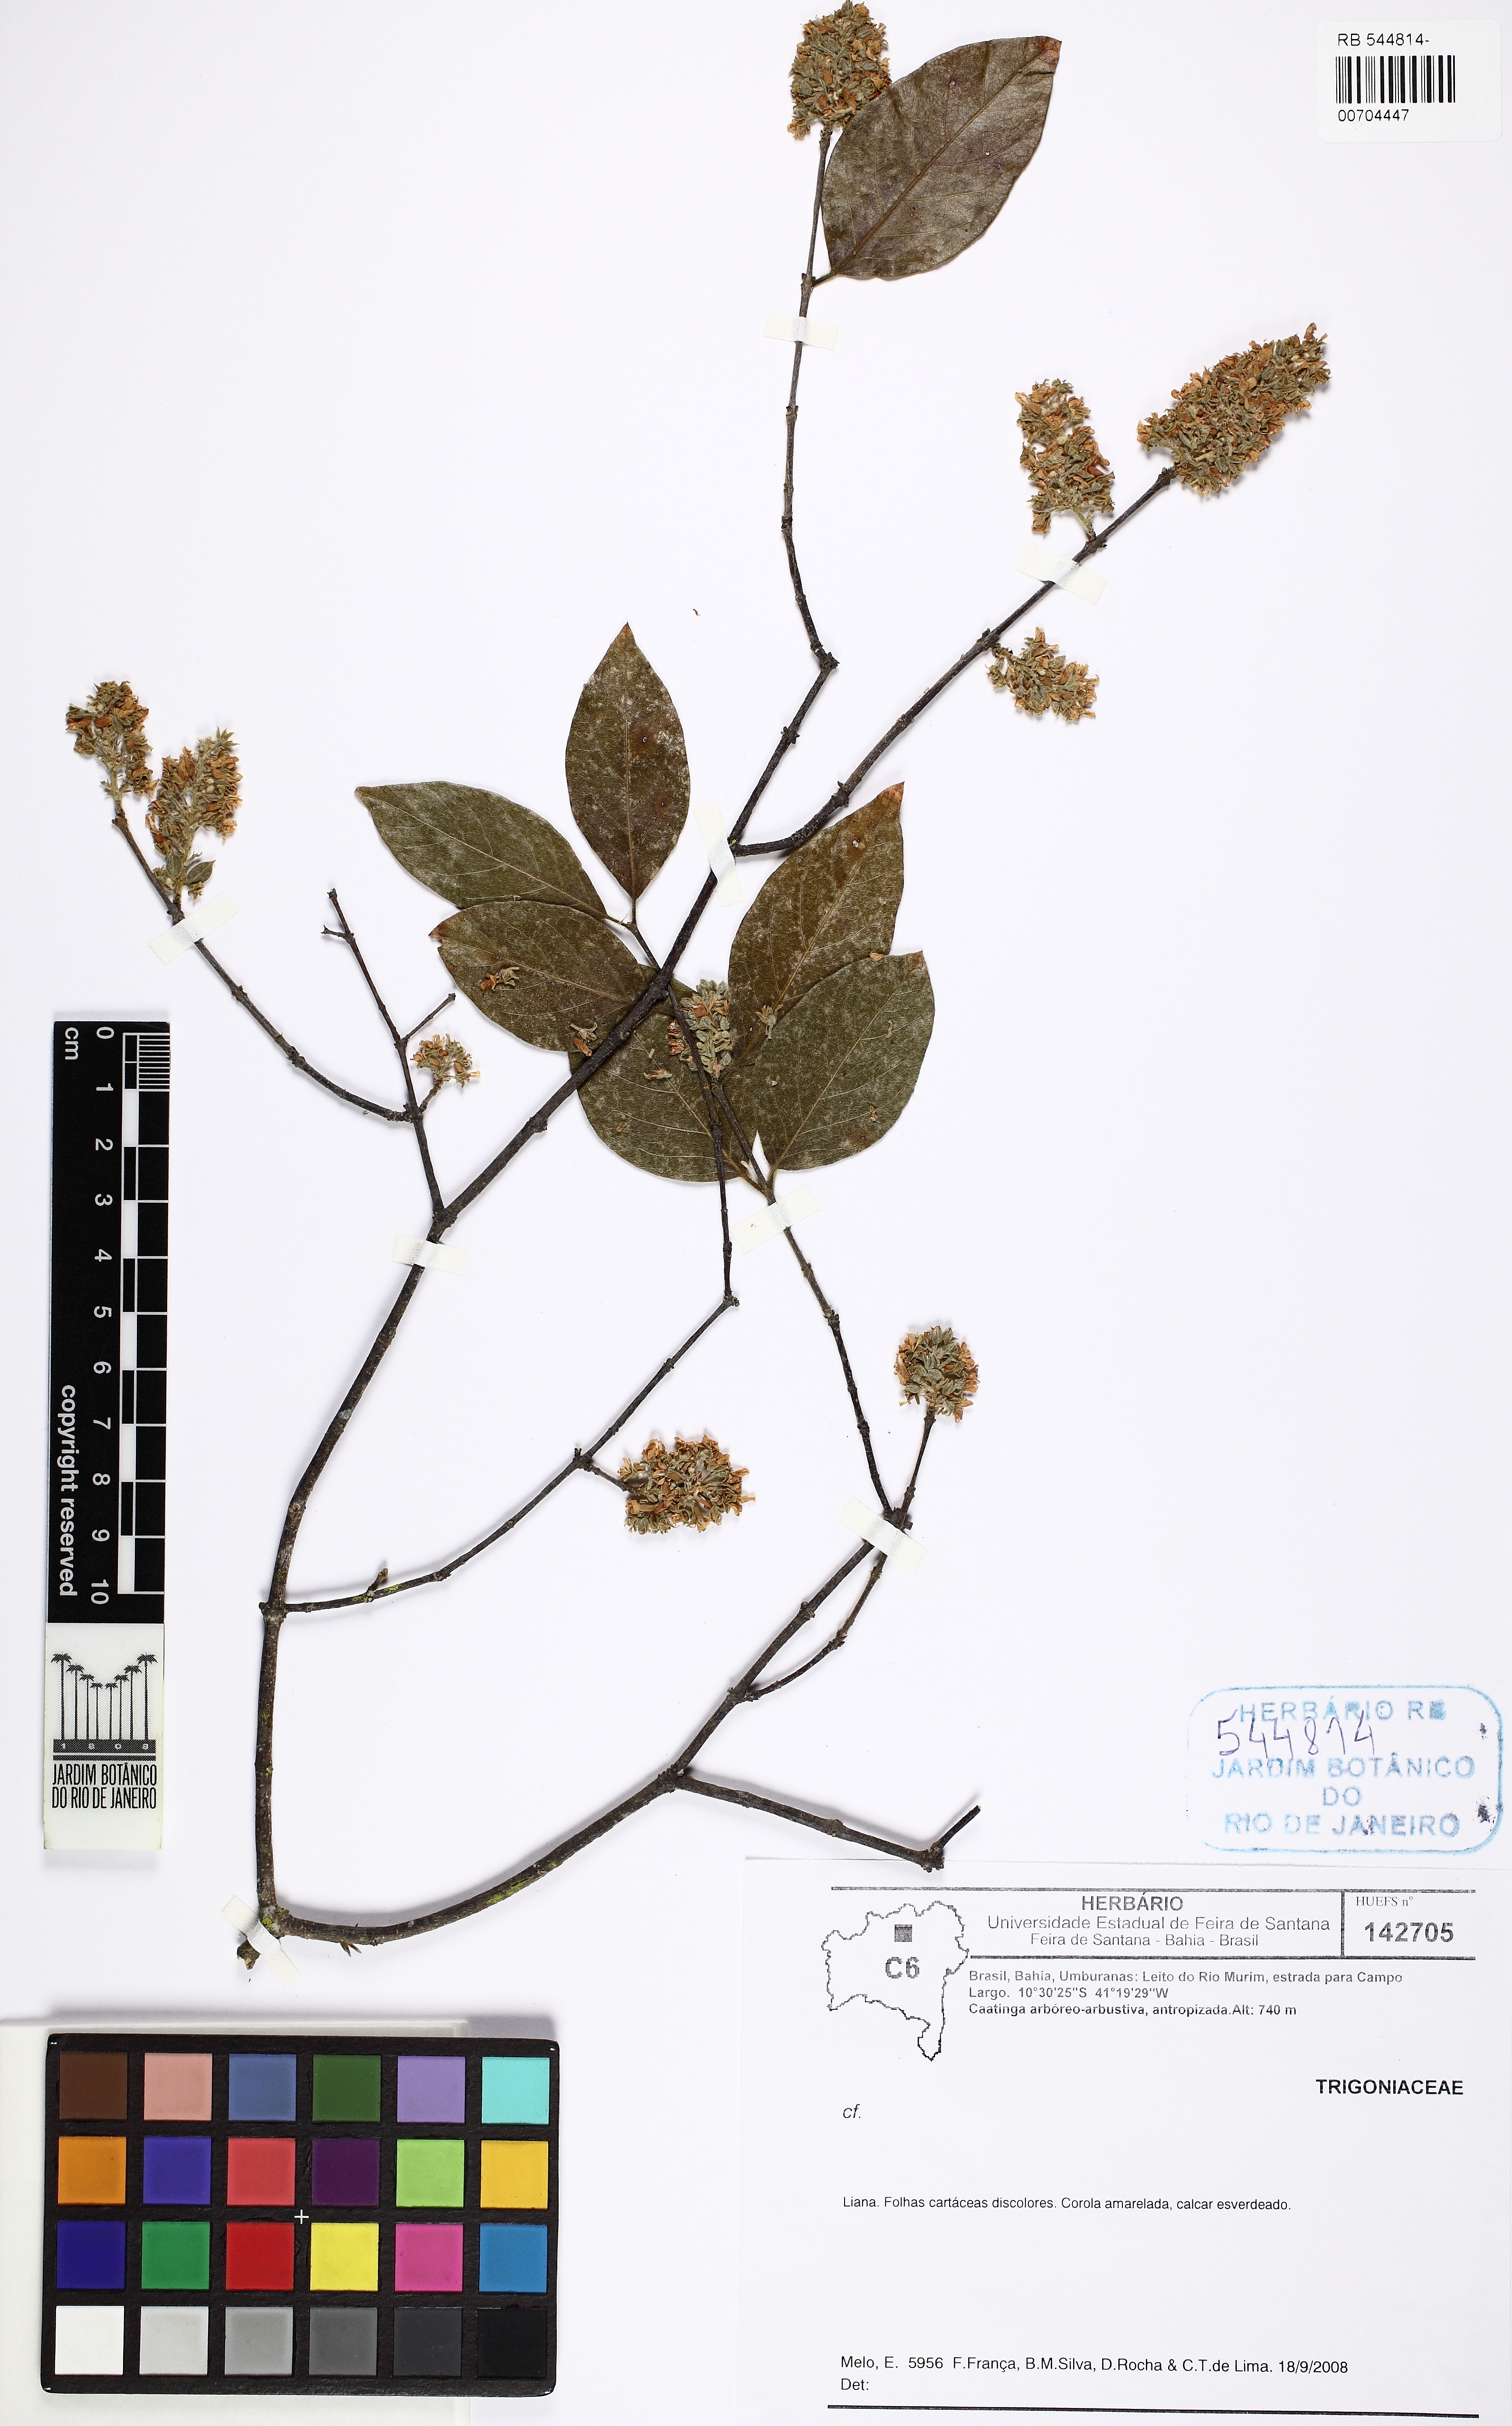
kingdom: Plantae
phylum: Tracheophyta
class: Magnoliopsida
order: Malpighiales
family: Trigoniaceae
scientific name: Trigoniaceae
